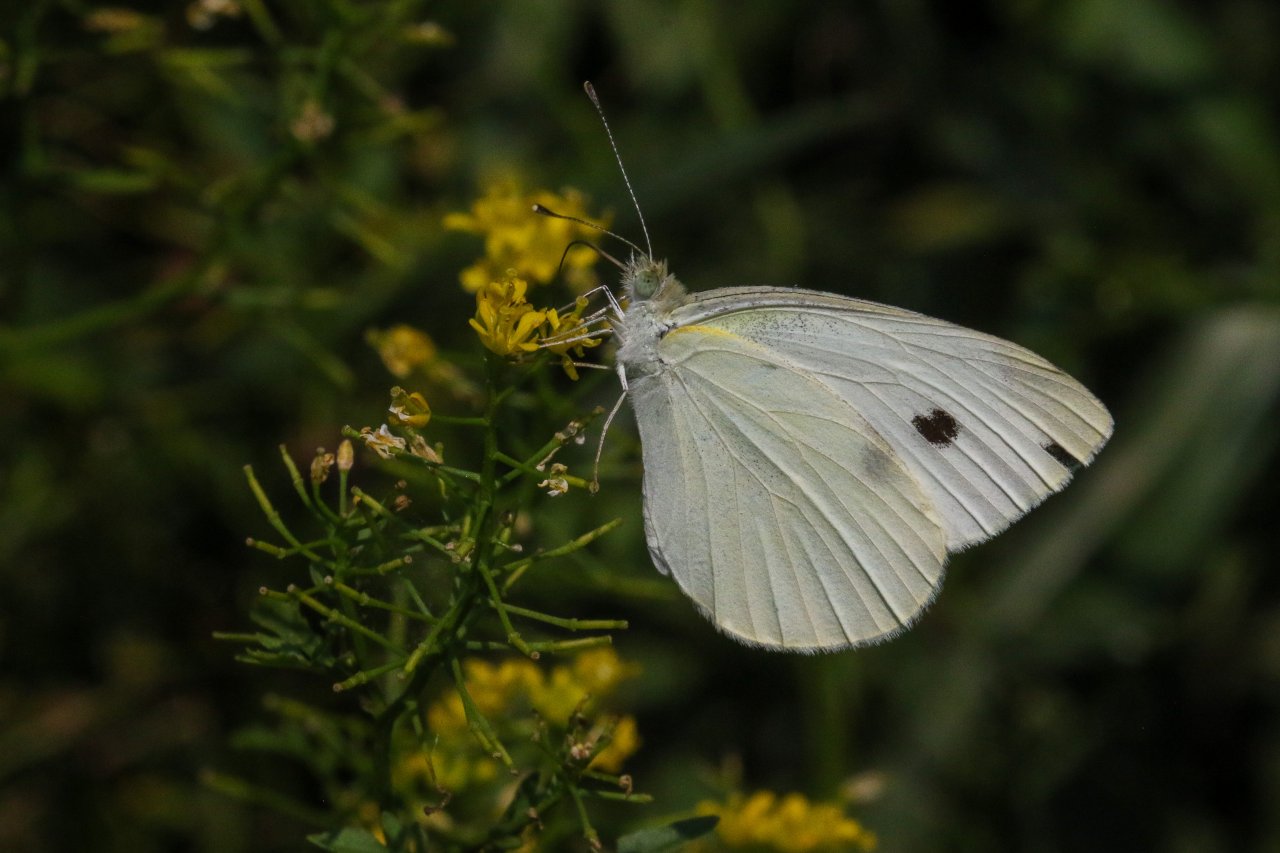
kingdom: Animalia
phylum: Arthropoda
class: Insecta
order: Lepidoptera
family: Pieridae
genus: Pieris
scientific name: Pieris rapae
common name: Cabbage White
